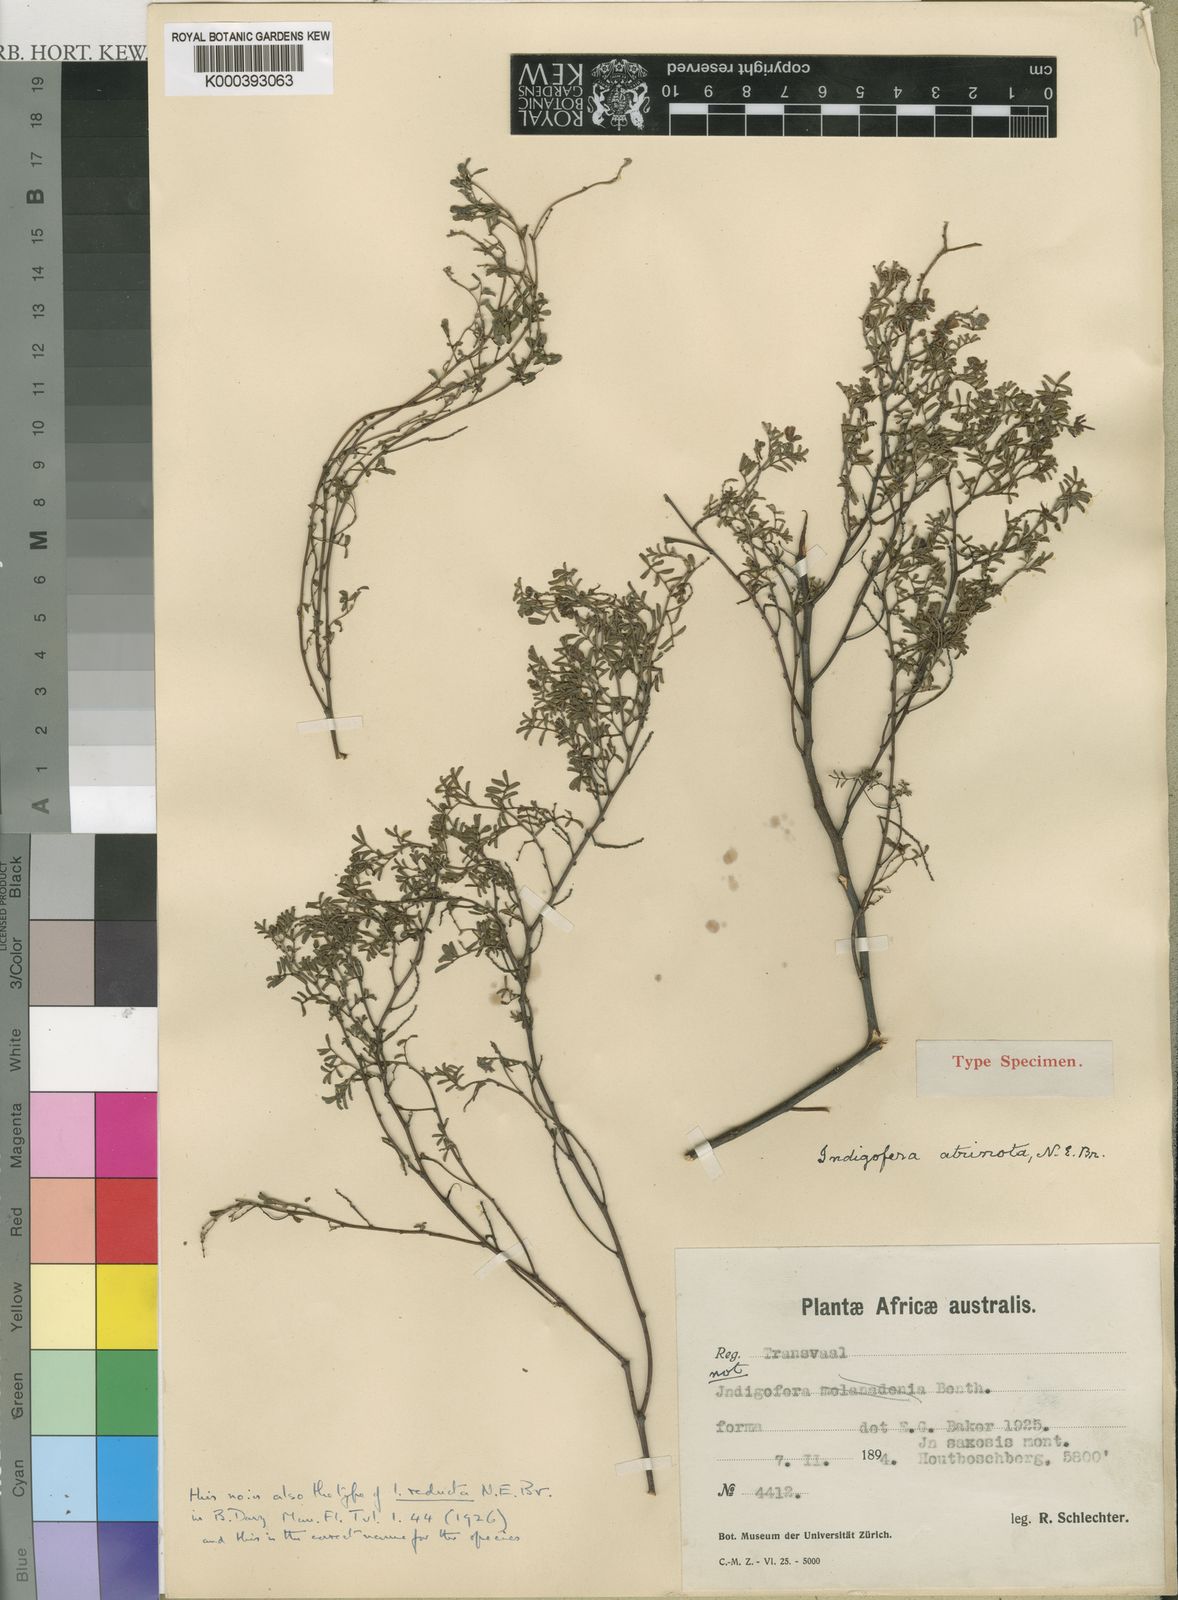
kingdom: Plantae
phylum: Tracheophyta
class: Magnoliopsida
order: Fabales
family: Fabaceae
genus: Indigofera
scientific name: Indigofera reducta
